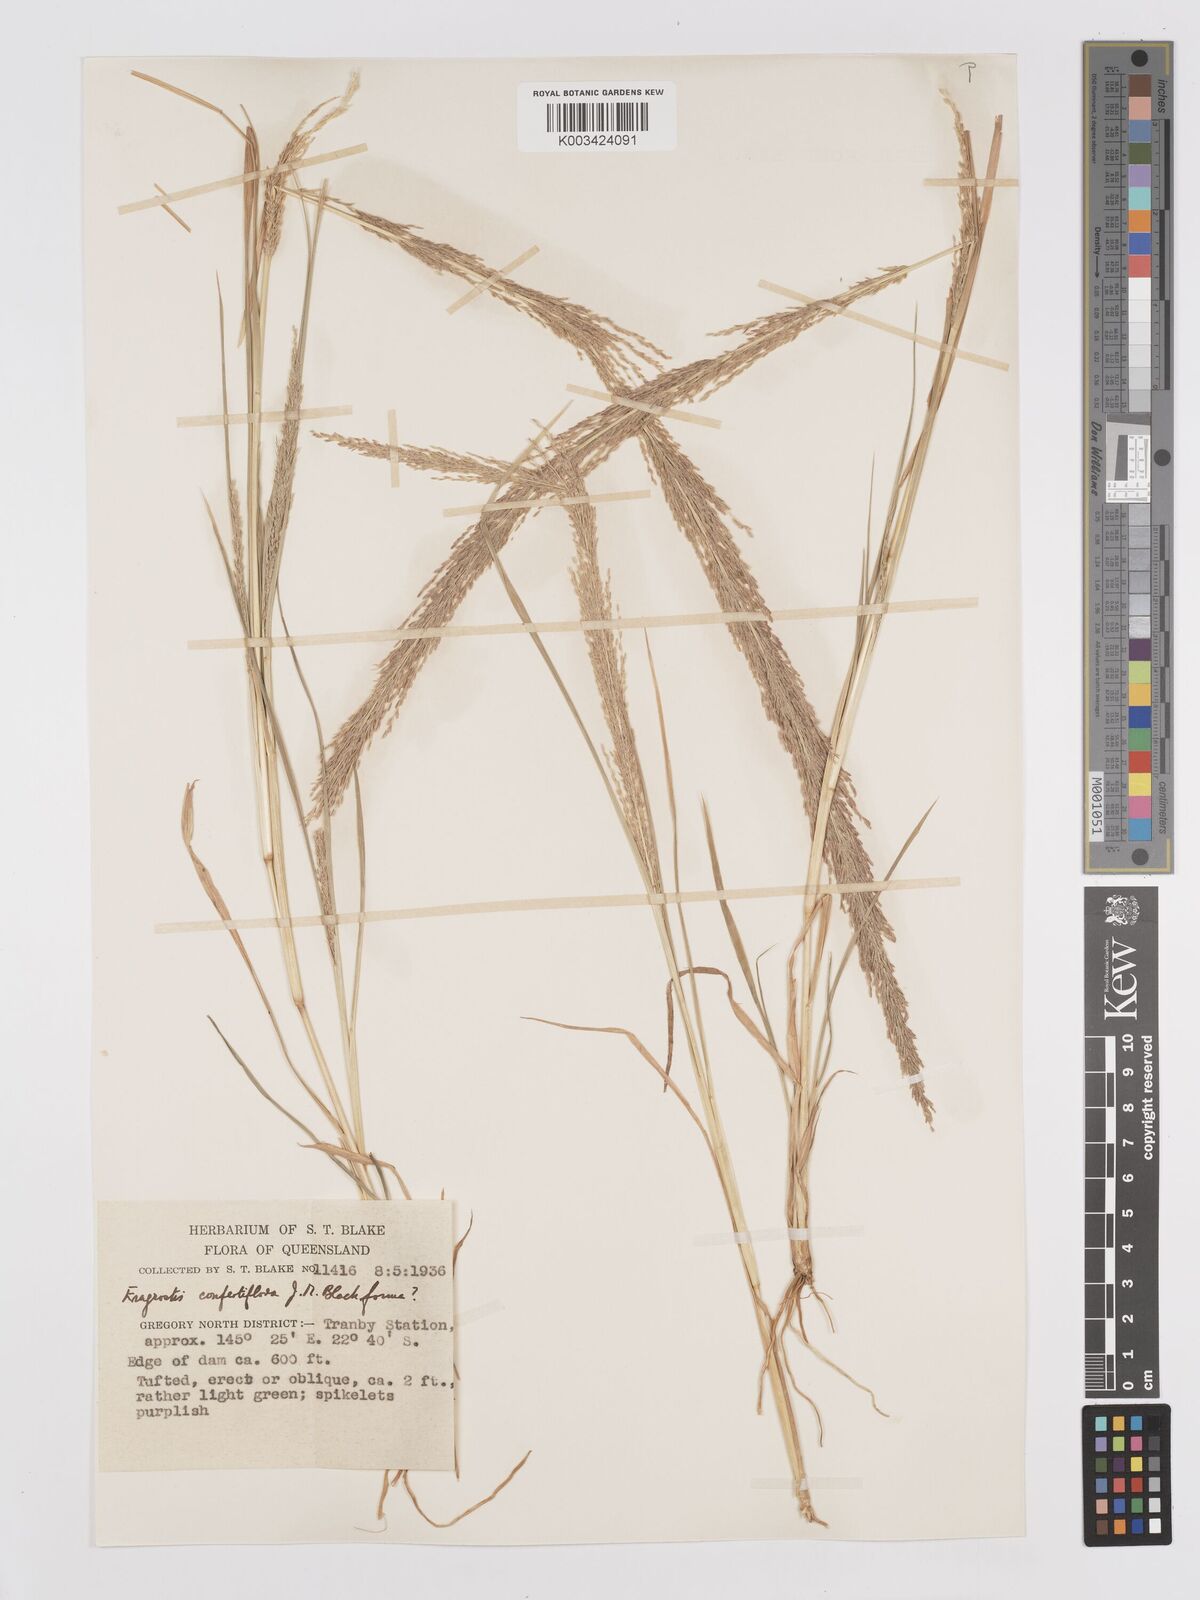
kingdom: Plantae
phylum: Tracheophyta
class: Liliopsida
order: Poales
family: Poaceae
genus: Eragrostis
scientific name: Eragrostis confertiflora
